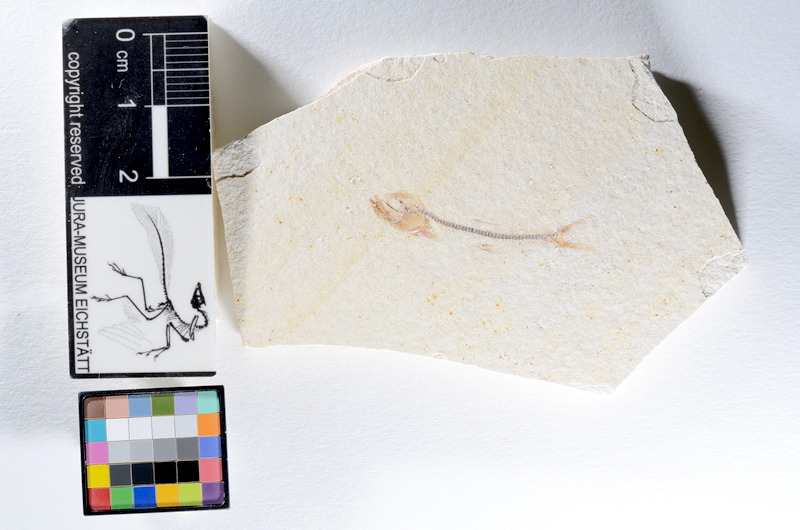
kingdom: Animalia
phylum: Chordata
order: Salmoniformes
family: Orthogonikleithridae
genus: Orthogonikleithrus
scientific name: Orthogonikleithrus hoelli
